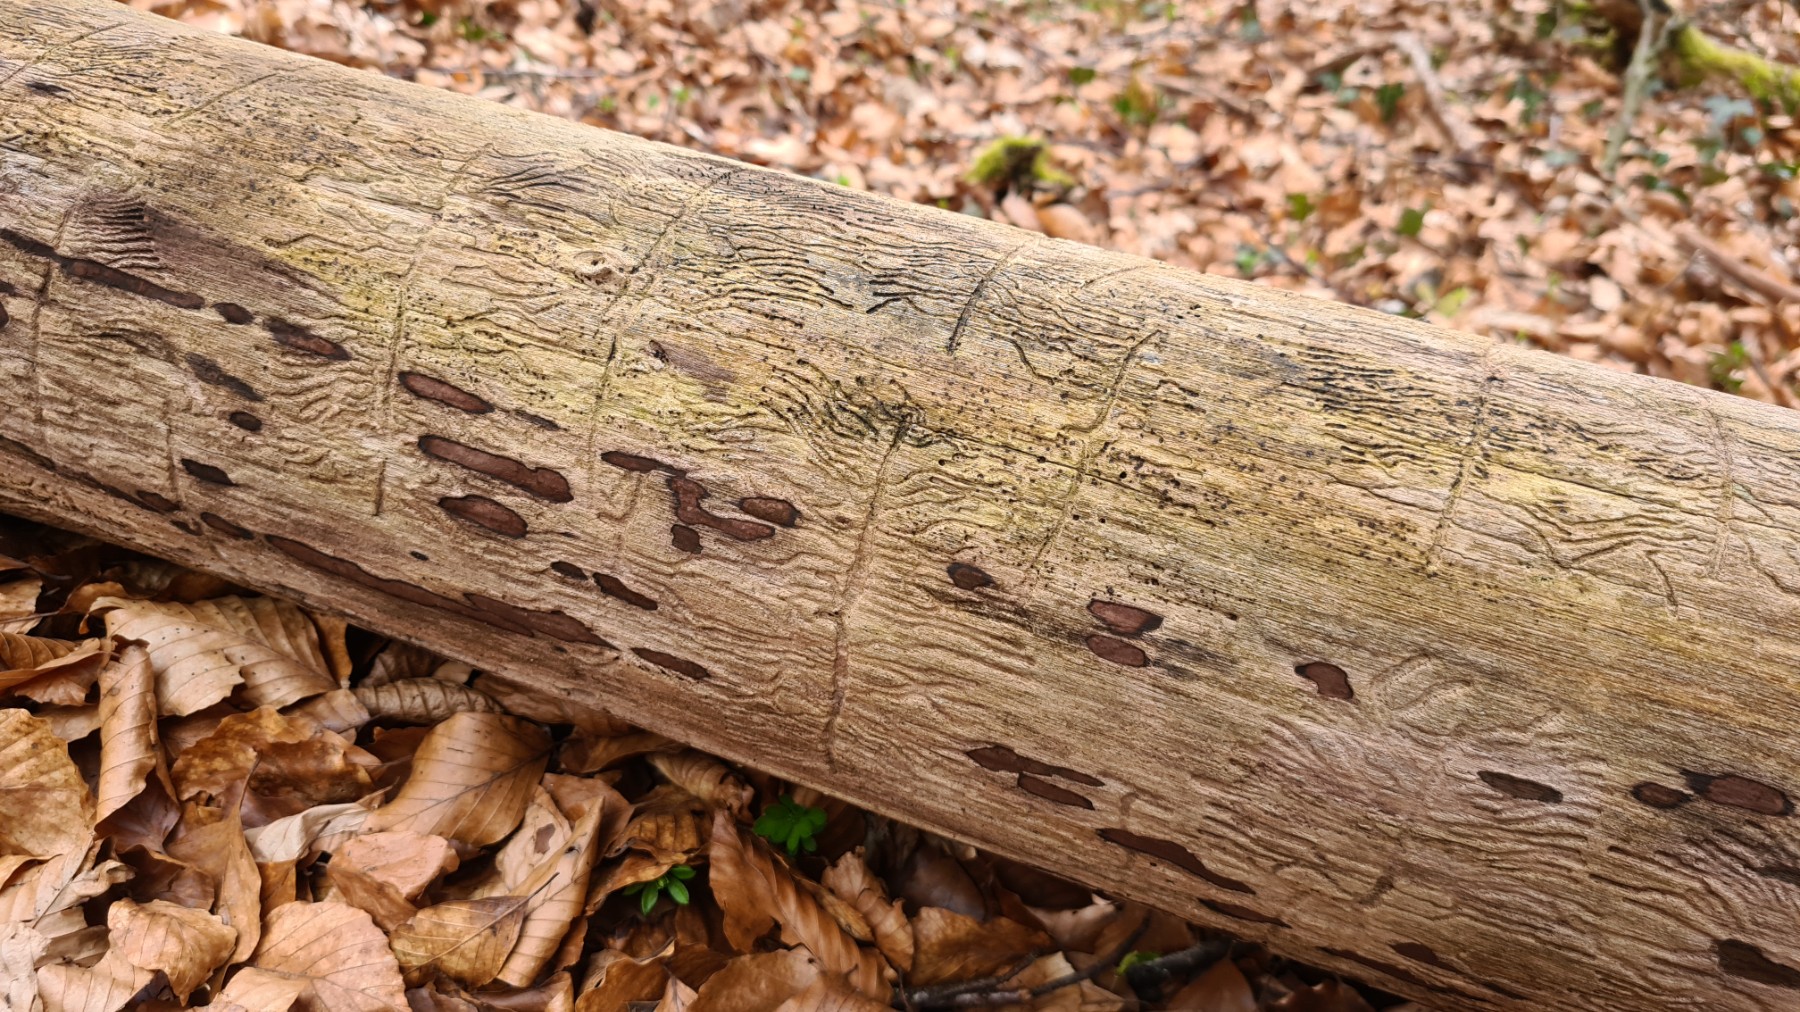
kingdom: Fungi
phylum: Ascomycota
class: Sordariomycetes
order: Xylariales
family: Hypoxylaceae
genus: Hypoxylon
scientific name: Hypoxylon petriniae
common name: nedsænket kulbær
